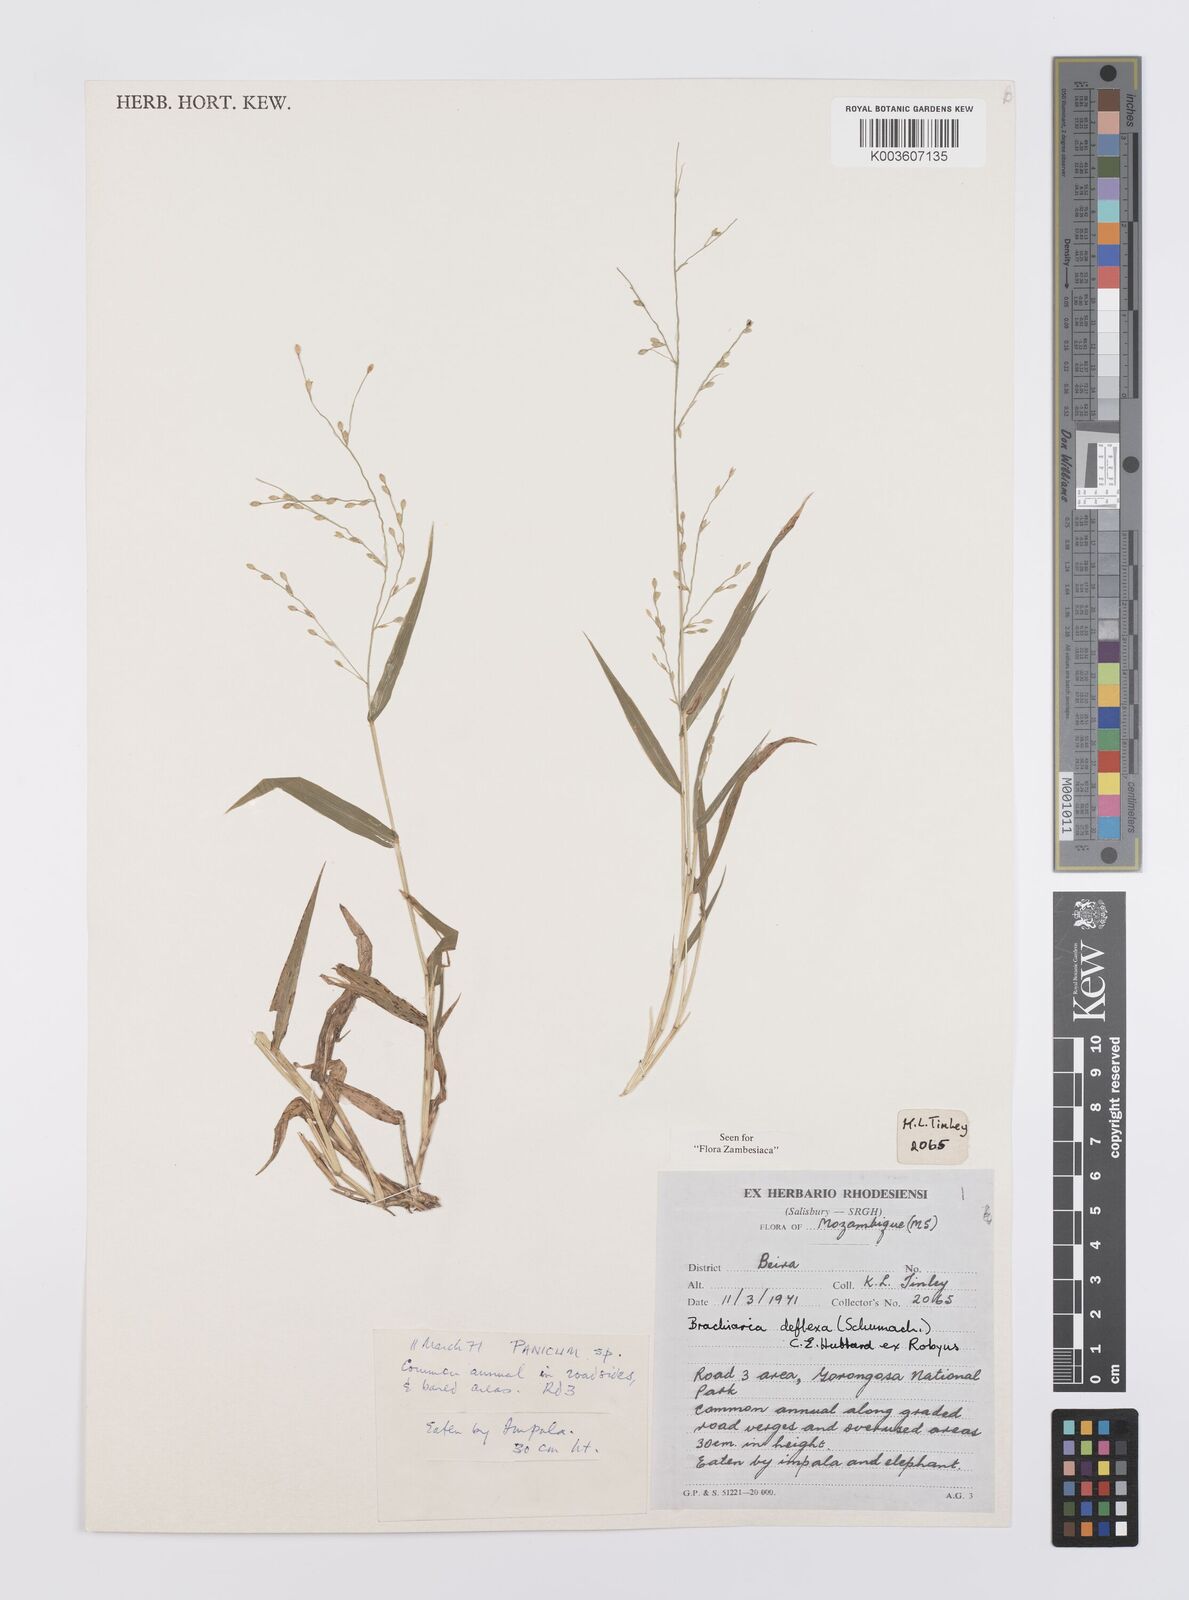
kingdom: Plantae
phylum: Tracheophyta
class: Liliopsida
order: Poales
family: Poaceae
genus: Urochloa
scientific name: Urochloa deflexa
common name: Guinea millet
